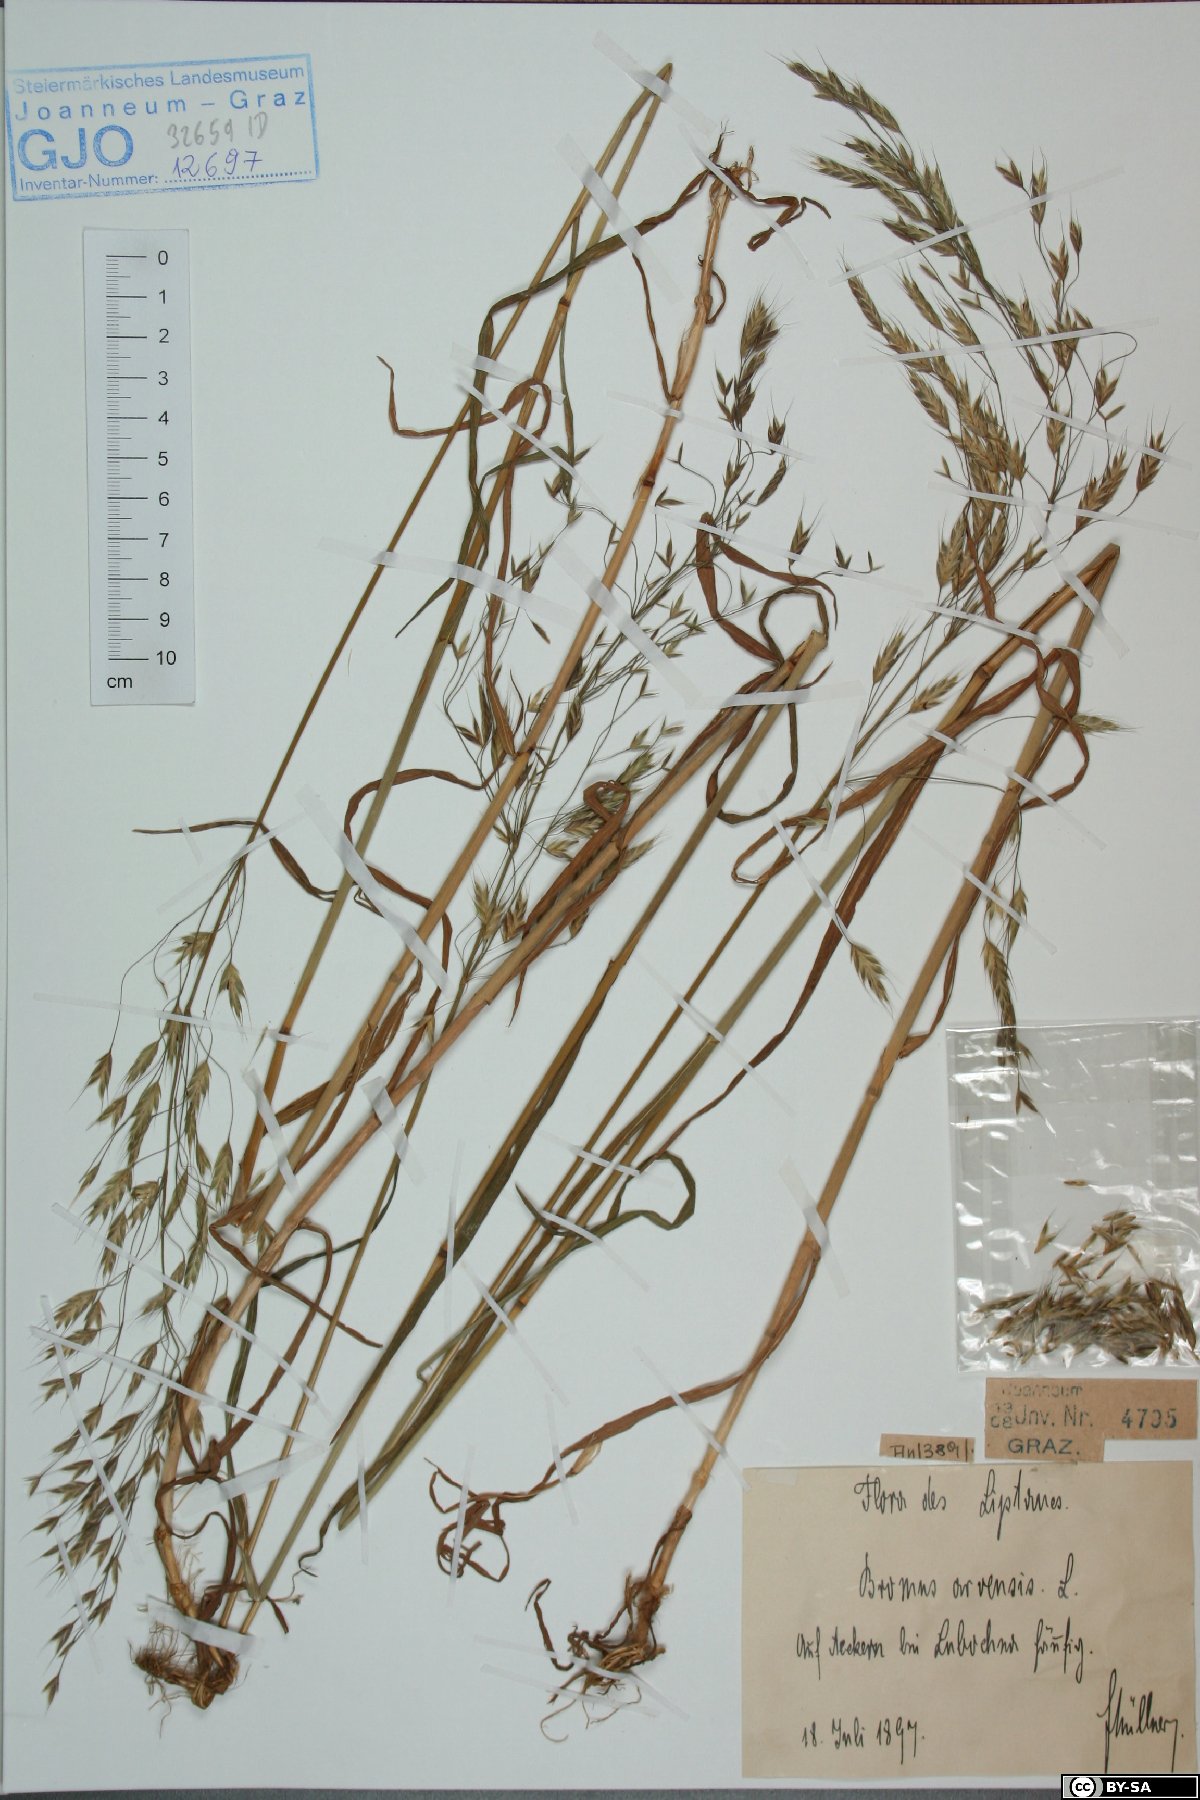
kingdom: Plantae
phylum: Tracheophyta
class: Liliopsida
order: Poales
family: Poaceae
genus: Bromus
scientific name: Bromus arvensis
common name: Field brome
